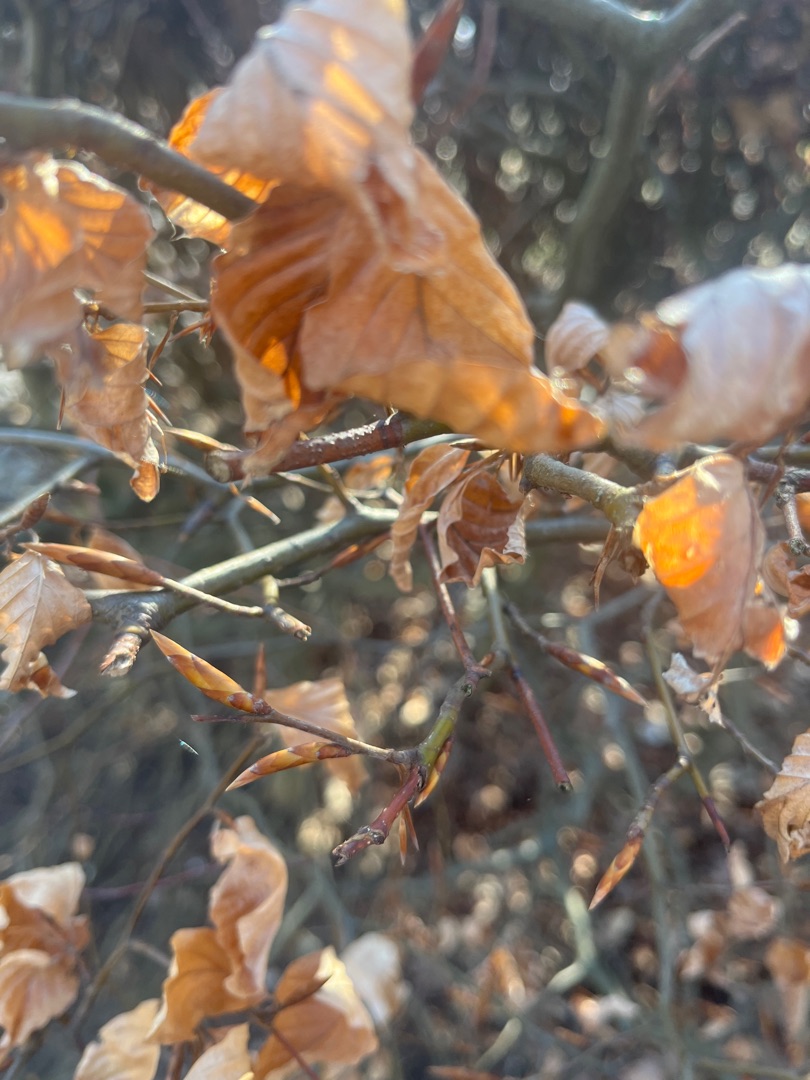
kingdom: Plantae
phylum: Tracheophyta
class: Magnoliopsida
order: Fagales
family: Fagaceae
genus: Fagus
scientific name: Fagus sylvatica
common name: Bøg
